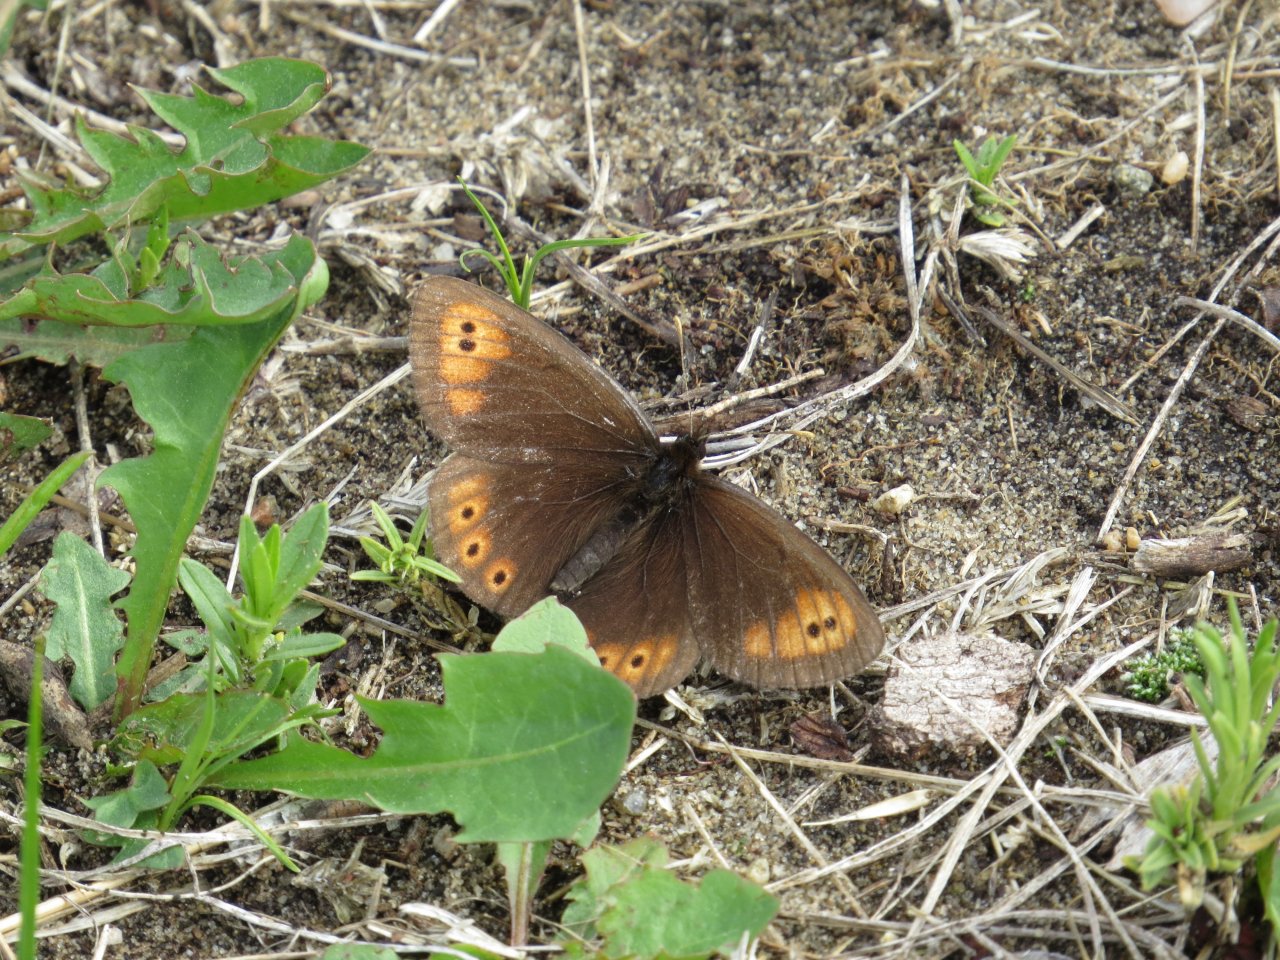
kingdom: Animalia
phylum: Arthropoda
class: Insecta
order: Lepidoptera
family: Nymphalidae
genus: Erebia
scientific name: Erebia epipsodea
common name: Common Alpine
